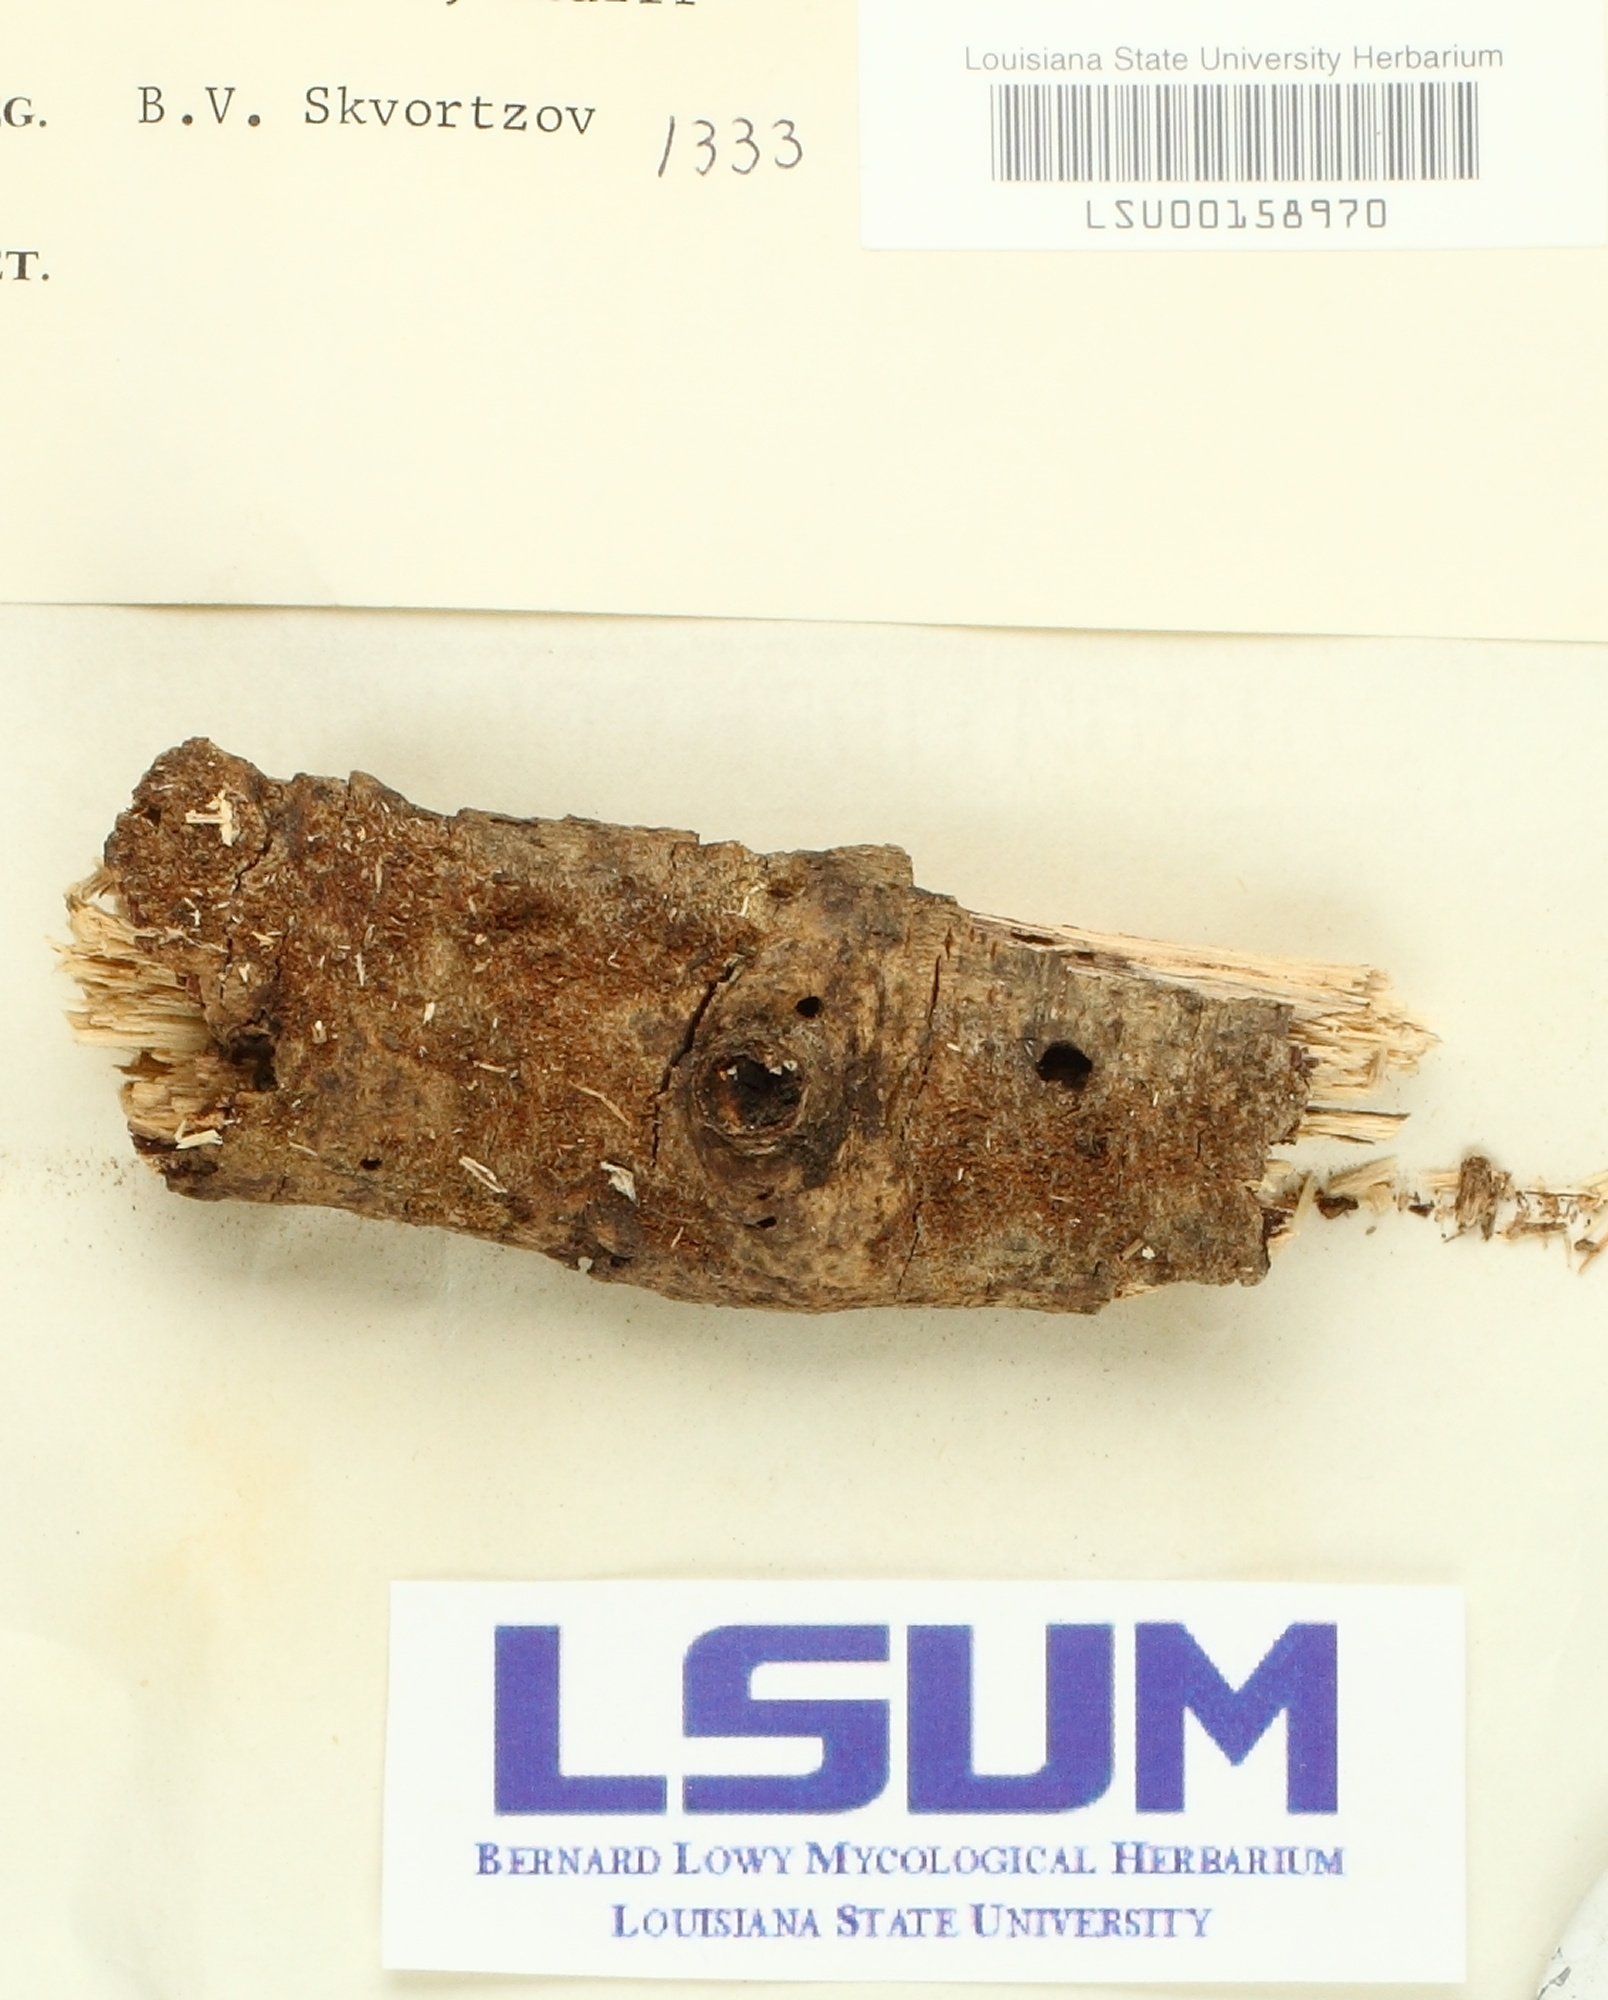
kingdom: Fungi
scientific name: Fungi
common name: Fungi
